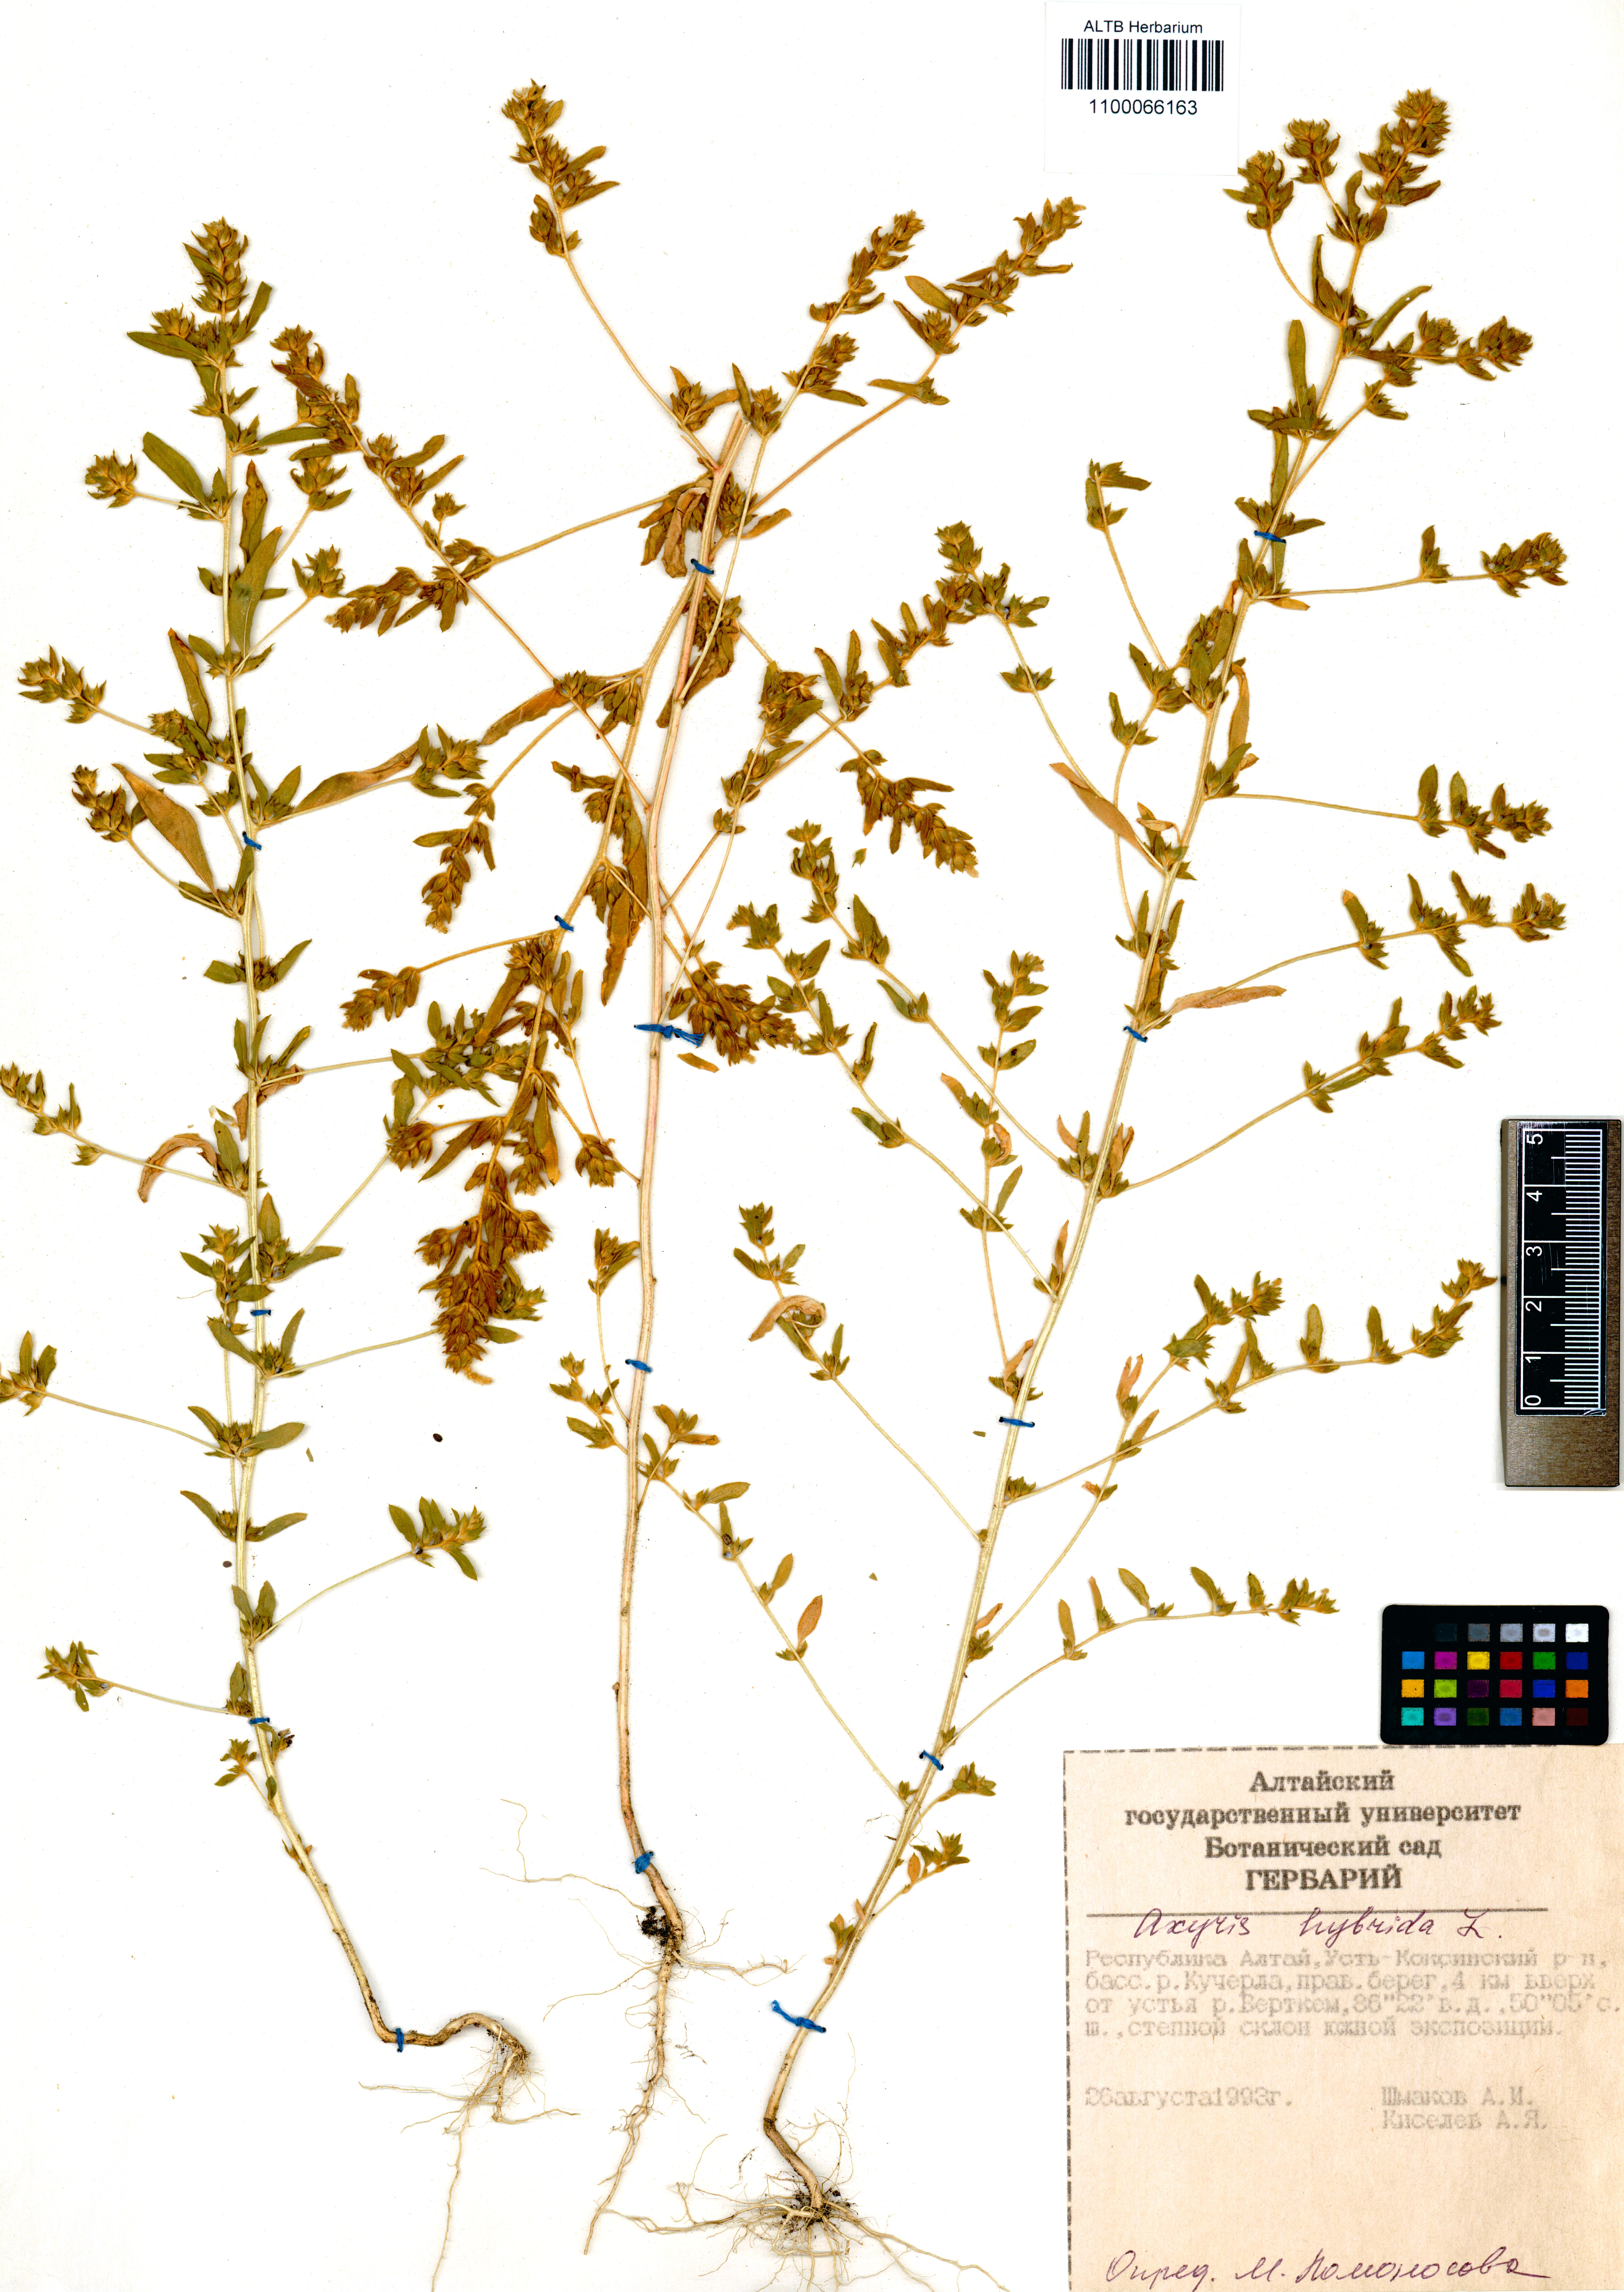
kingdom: Plantae
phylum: Tracheophyta
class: Magnoliopsida
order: Caryophyllales
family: Amaranthaceae
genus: Axyris
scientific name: Axyris hybrida
